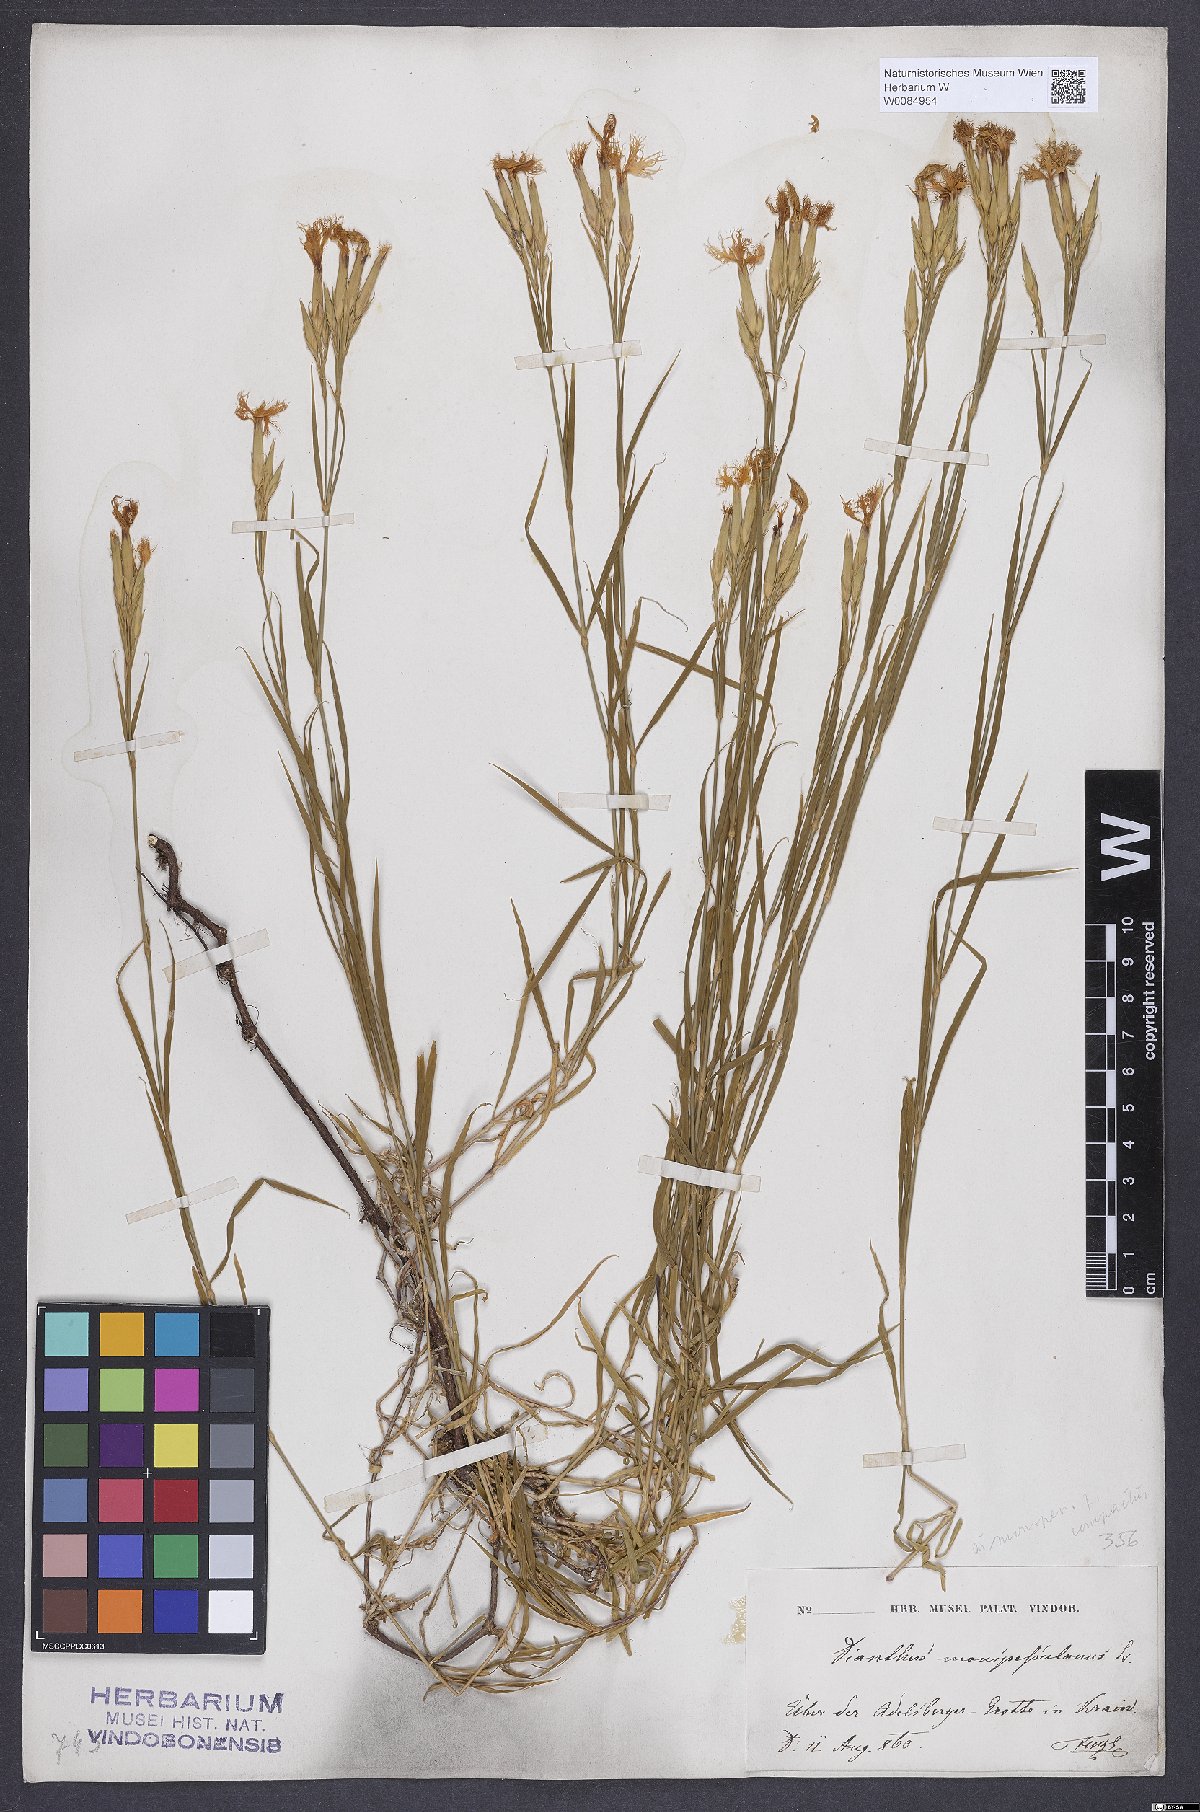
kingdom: Plantae
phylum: Tracheophyta
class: Magnoliopsida
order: Caryophyllales
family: Caryophyllaceae
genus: Dianthus
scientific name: Dianthus hyssopifolius
